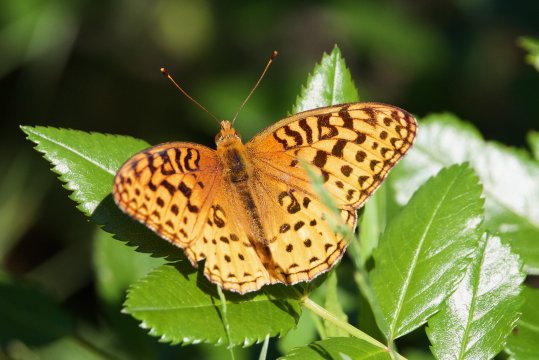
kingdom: Animalia
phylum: Arthropoda
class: Insecta
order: Lepidoptera
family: Nymphalidae
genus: Speyeria
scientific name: Speyeria aphrodite
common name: Aphrodite Fritillary
